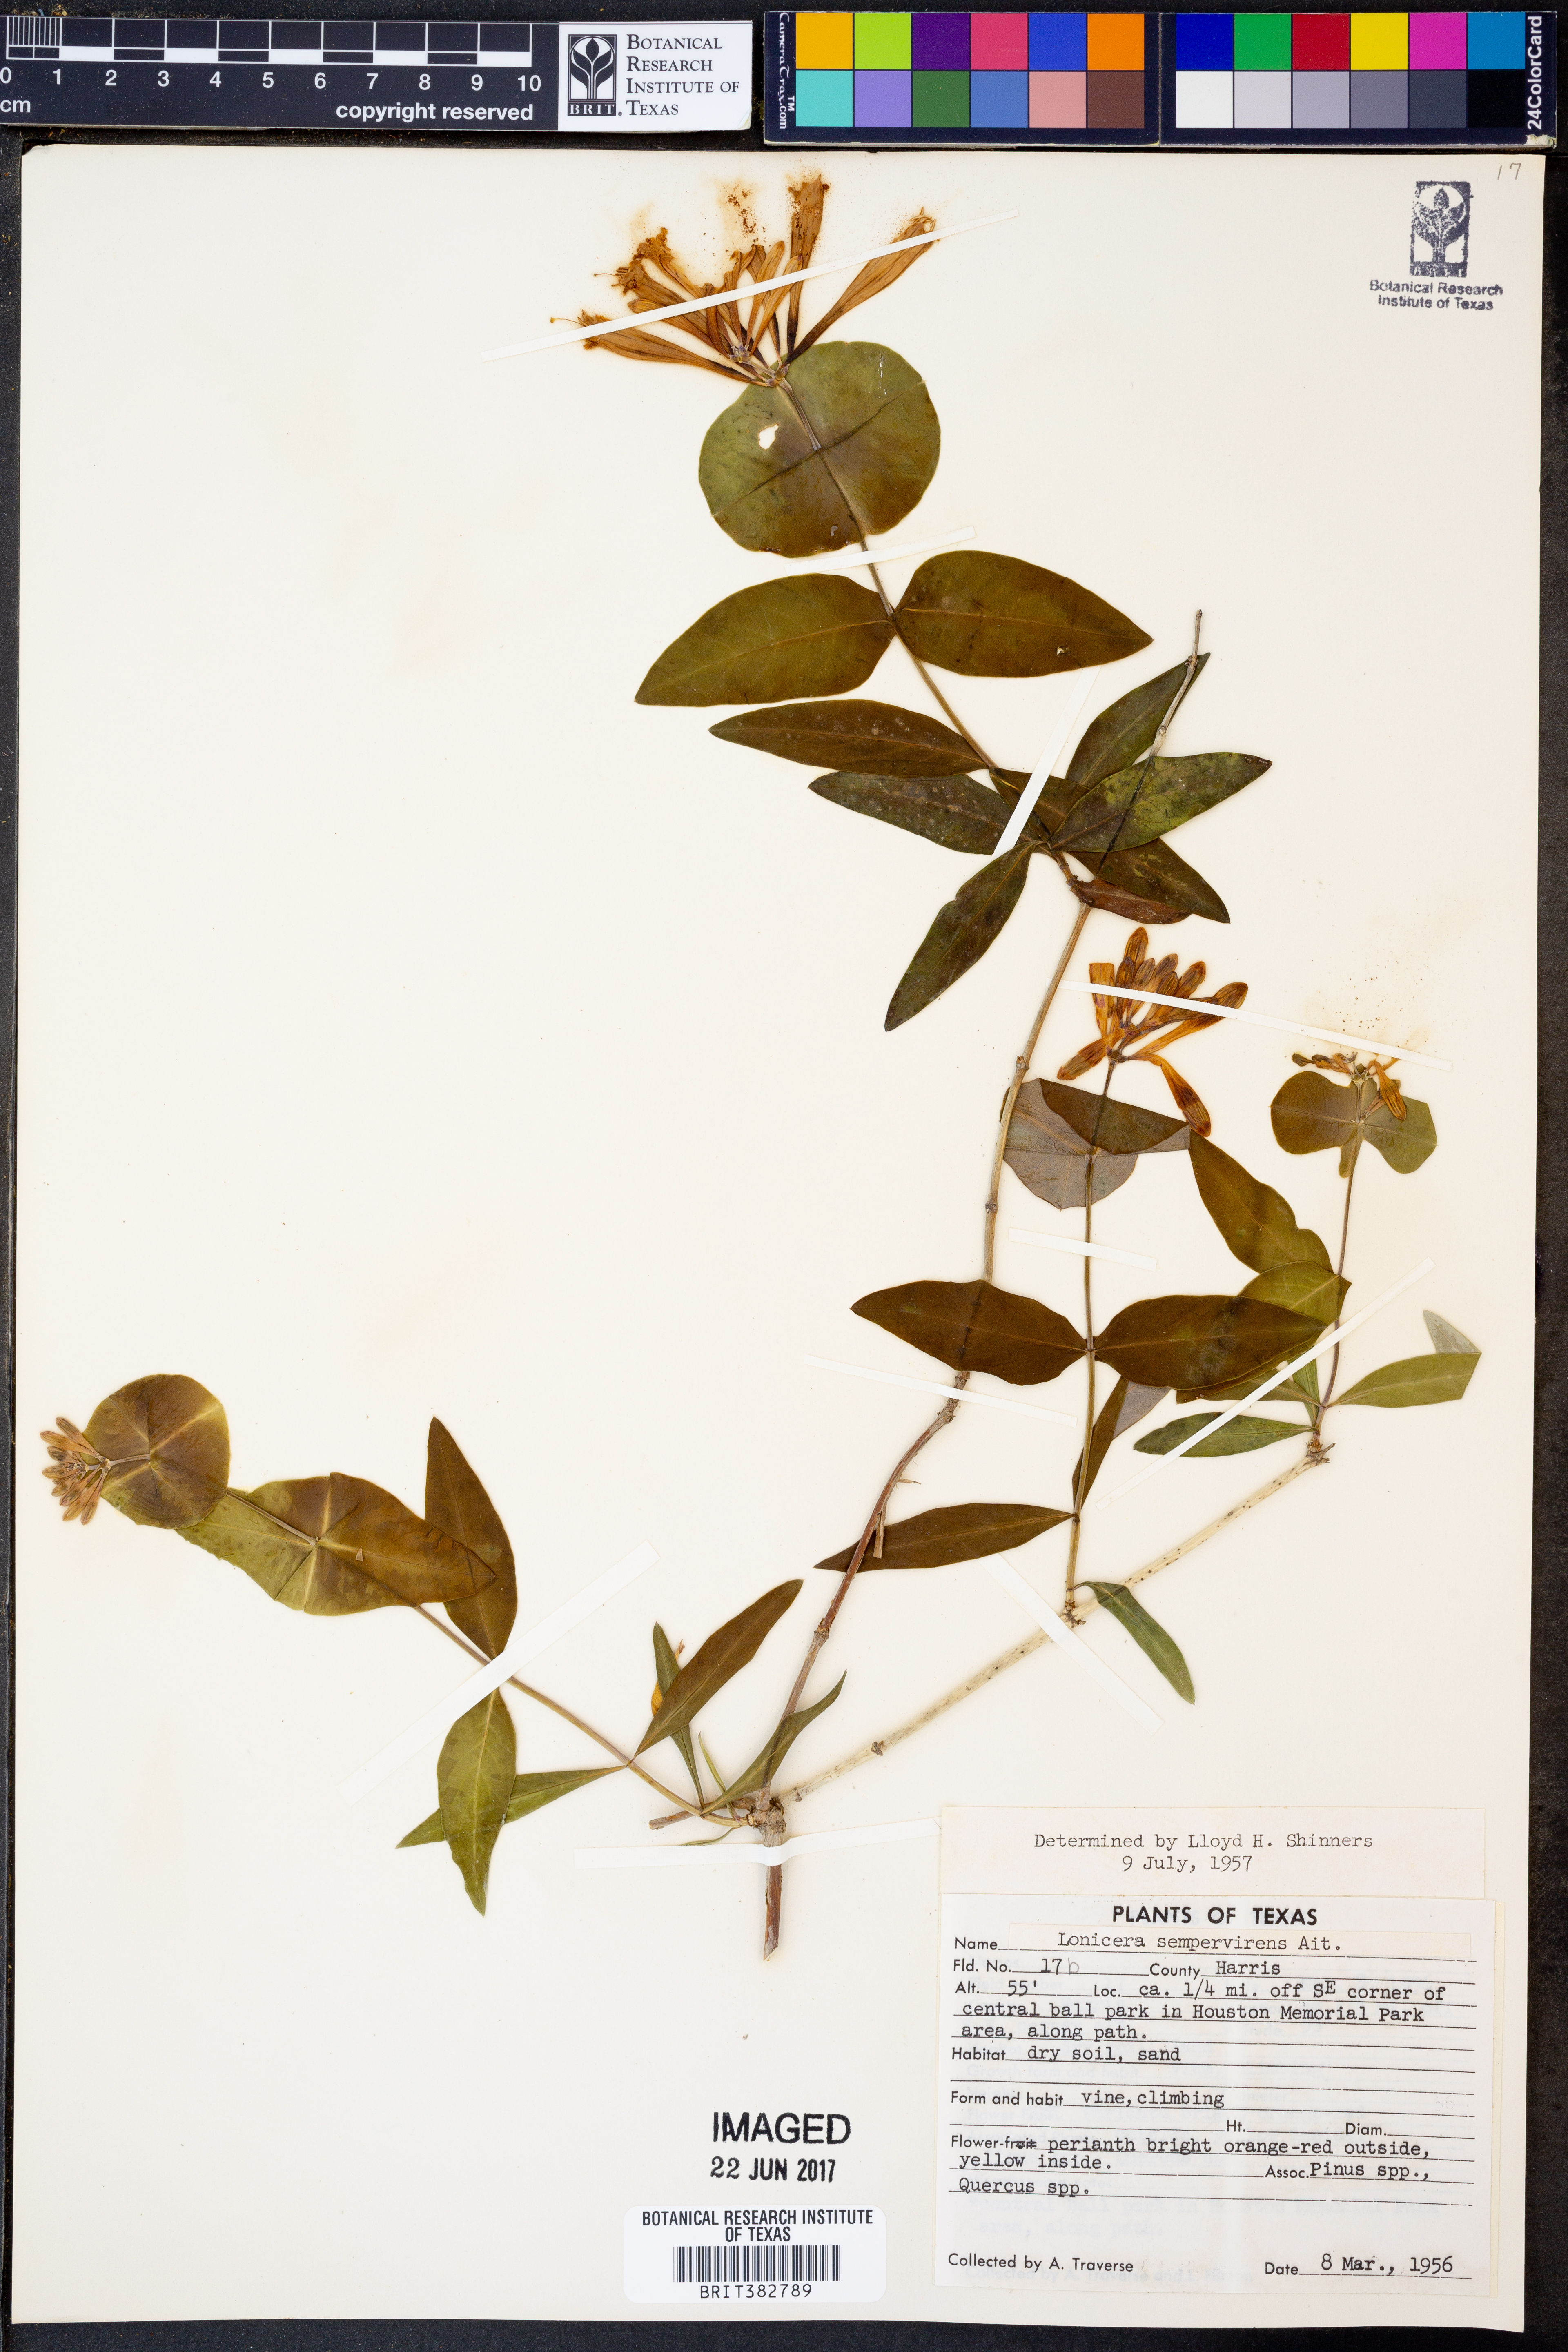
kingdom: Plantae
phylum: Tracheophyta
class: Magnoliopsida
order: Dipsacales
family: Caprifoliaceae
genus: Lonicera
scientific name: Lonicera sempervirens
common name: Coral honeysuckle
